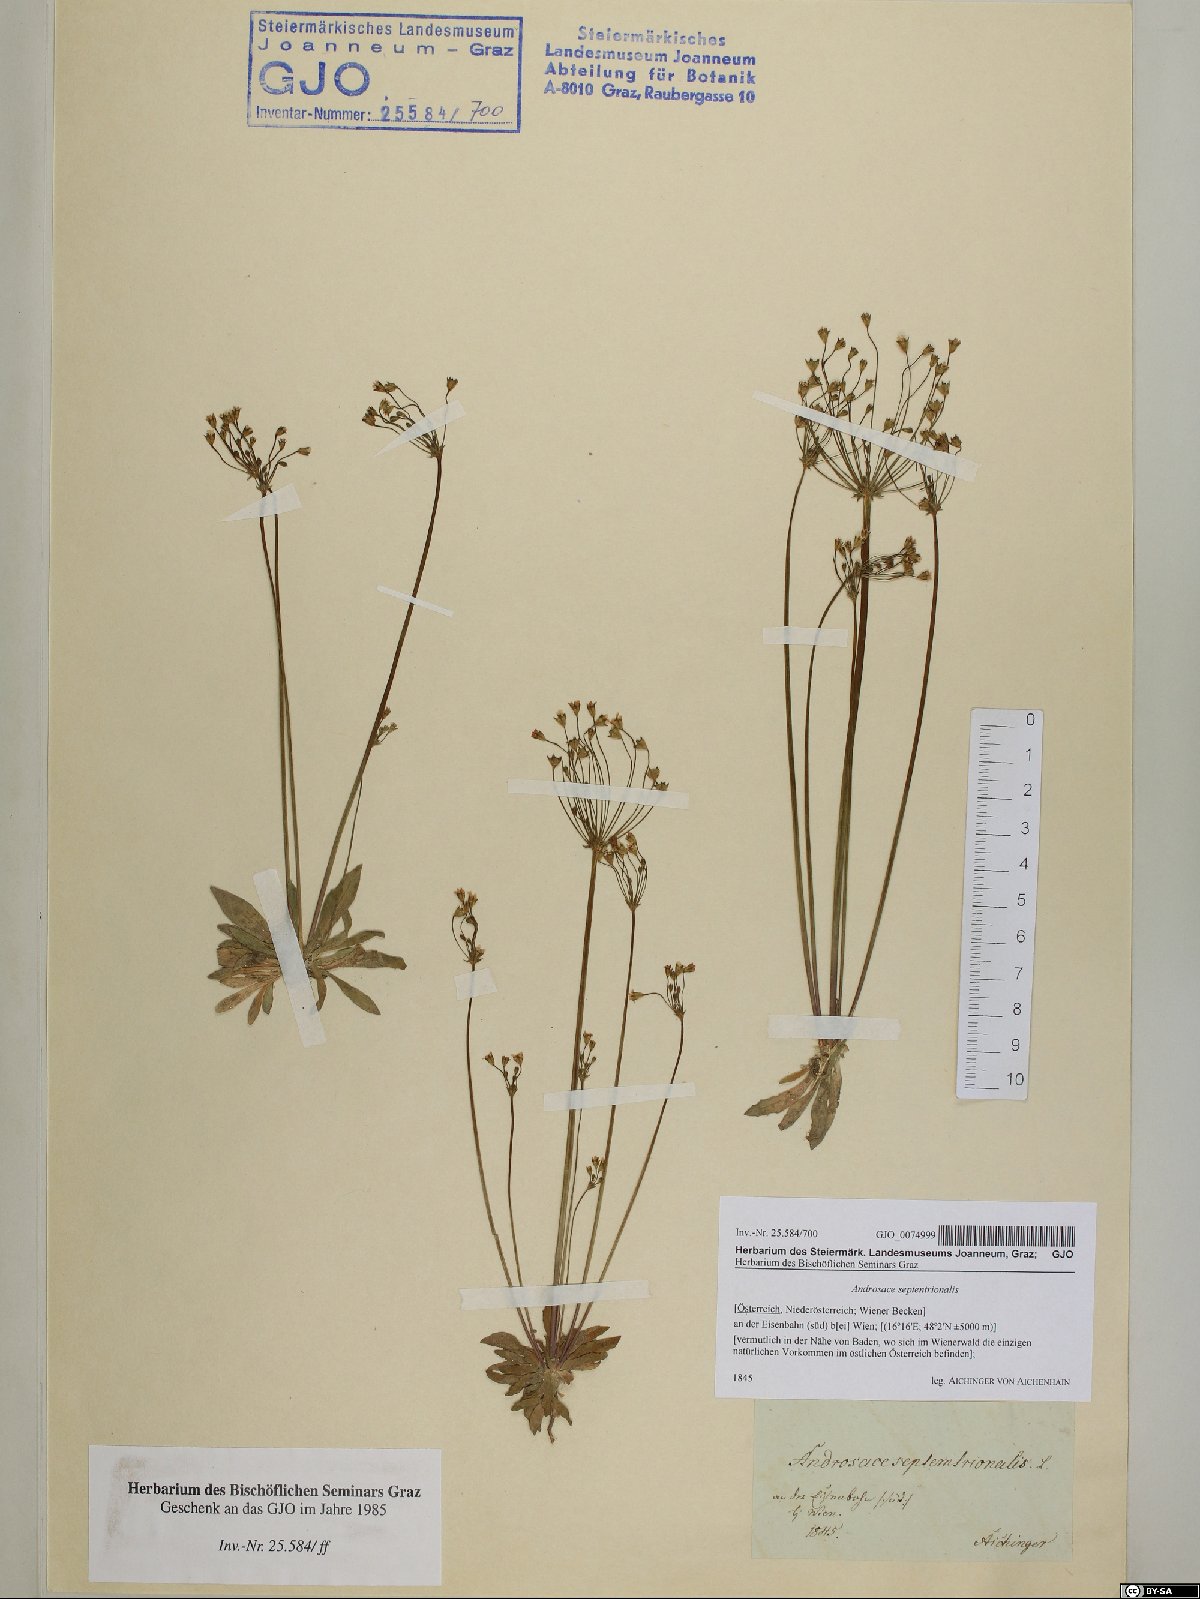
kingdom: Plantae
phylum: Tracheophyta
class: Magnoliopsida
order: Ericales
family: Primulaceae
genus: Androsace
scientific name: Androsace septentrionalis
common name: Hairy northern fairy-candelabra
